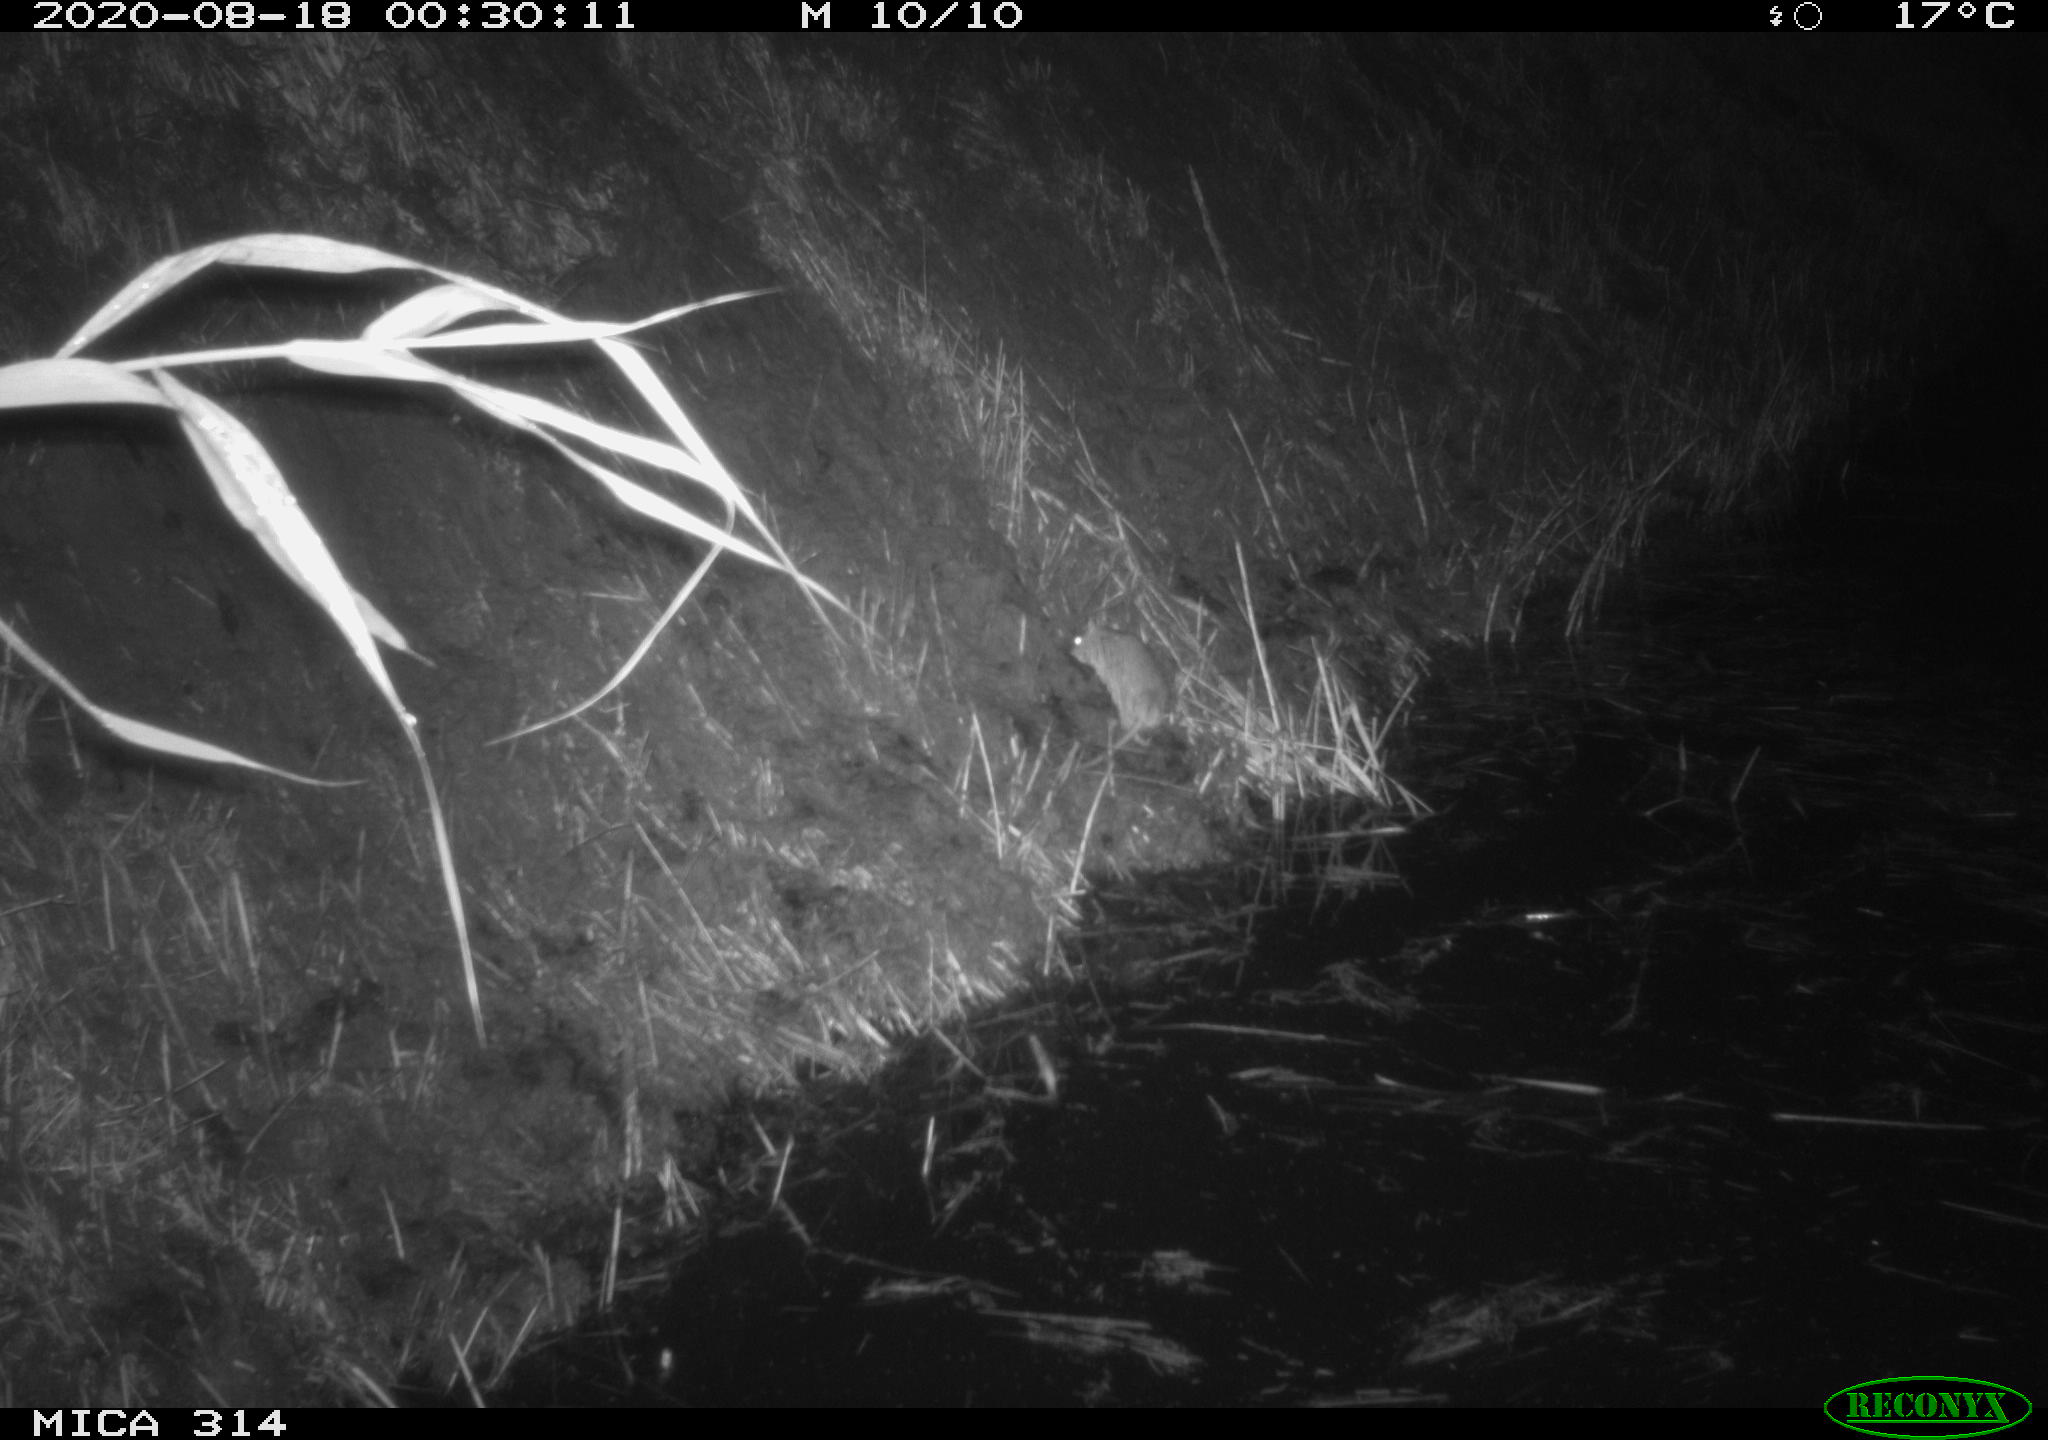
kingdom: Animalia
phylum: Chordata
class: Mammalia
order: Rodentia
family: Muridae
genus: Rattus
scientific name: Rattus norvegicus
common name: Brown rat
